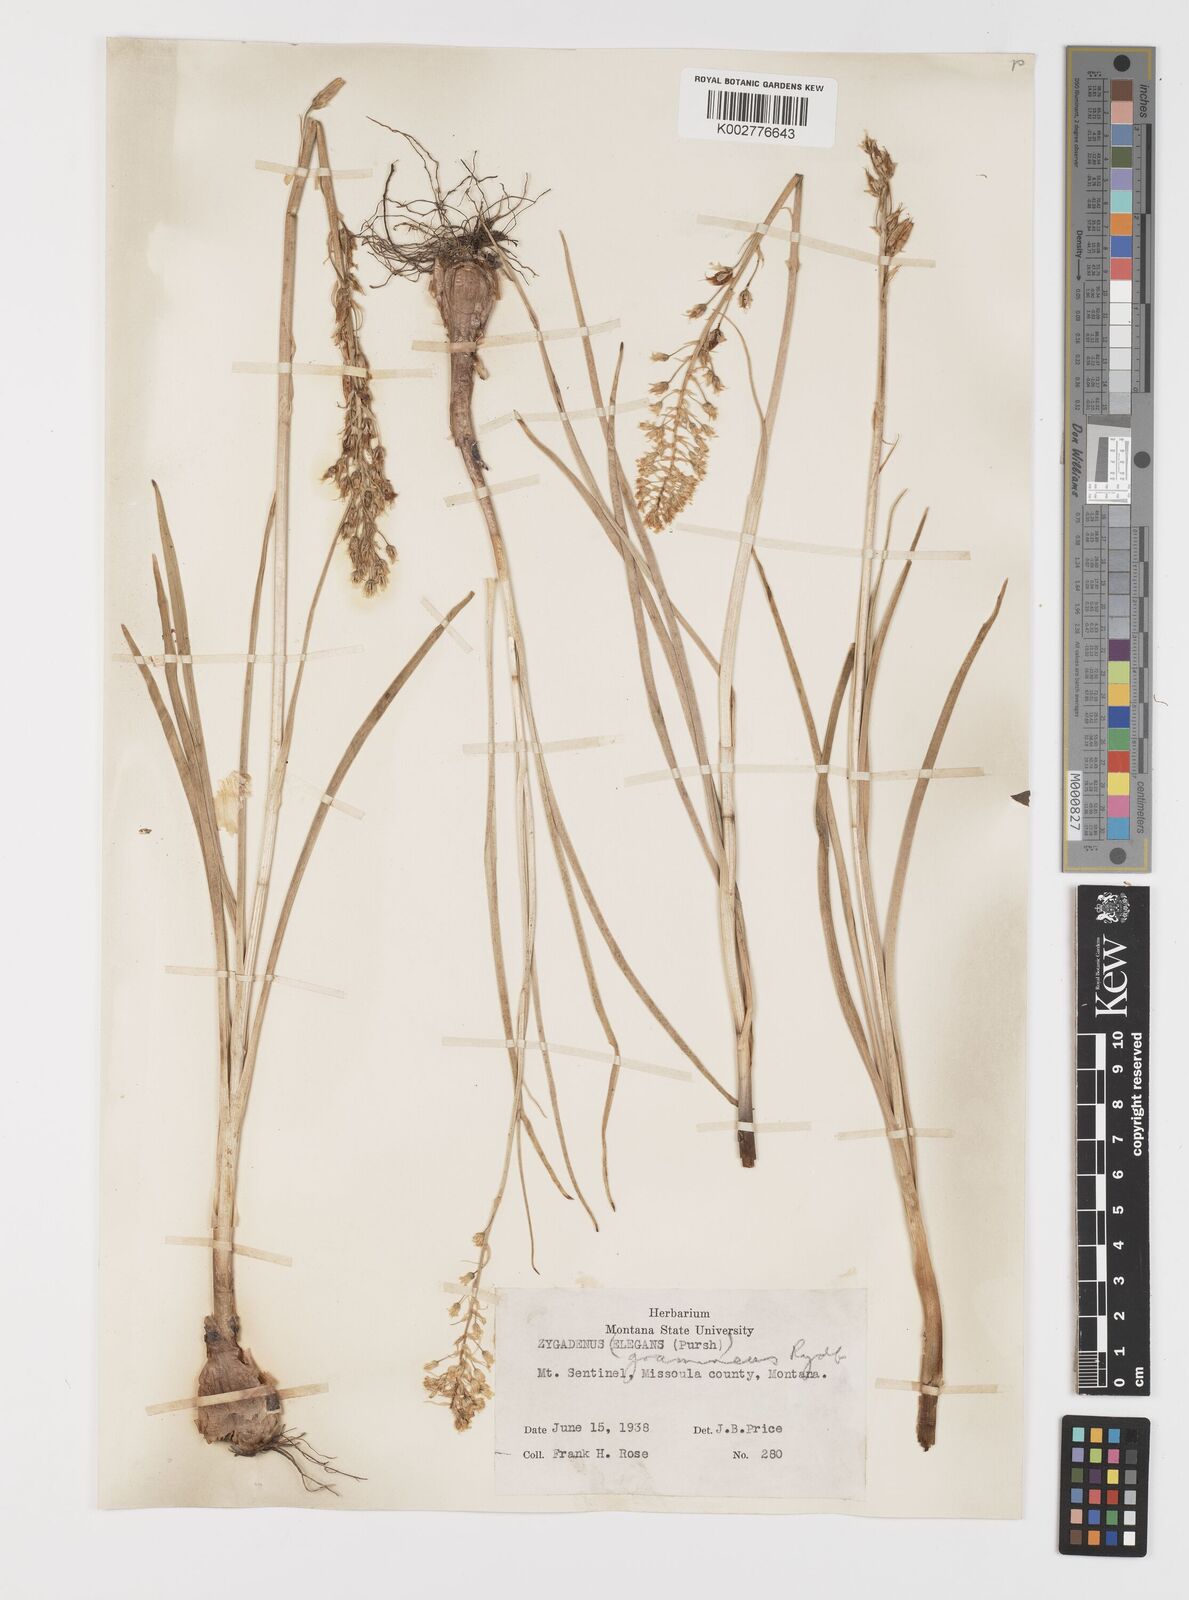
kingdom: Plantae
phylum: Tracheophyta
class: Liliopsida
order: Liliales
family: Melanthiaceae
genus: Toxicoscordion
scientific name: Toxicoscordion venenosum
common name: Meadow death camas
